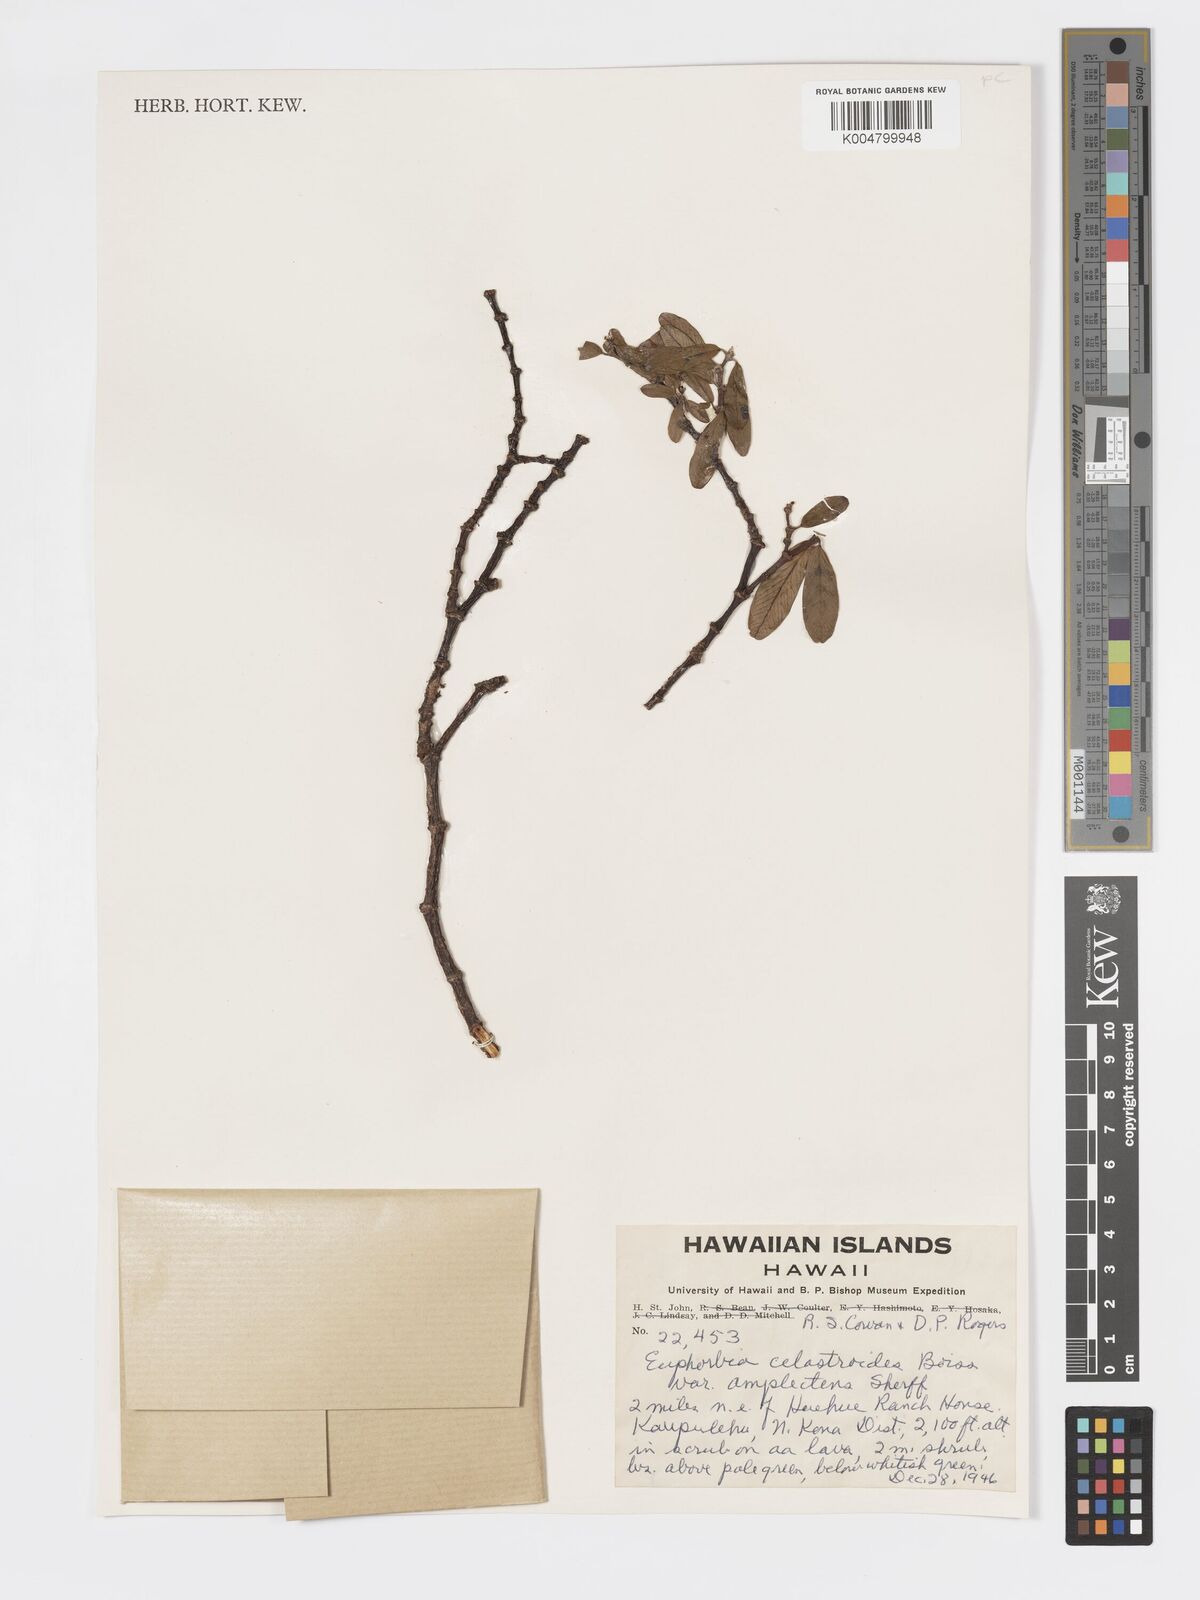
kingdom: Plantae
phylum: Tracheophyta
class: Magnoliopsida
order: Malpighiales
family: Euphorbiaceae
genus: Euphorbia
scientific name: Euphorbia celastroides
